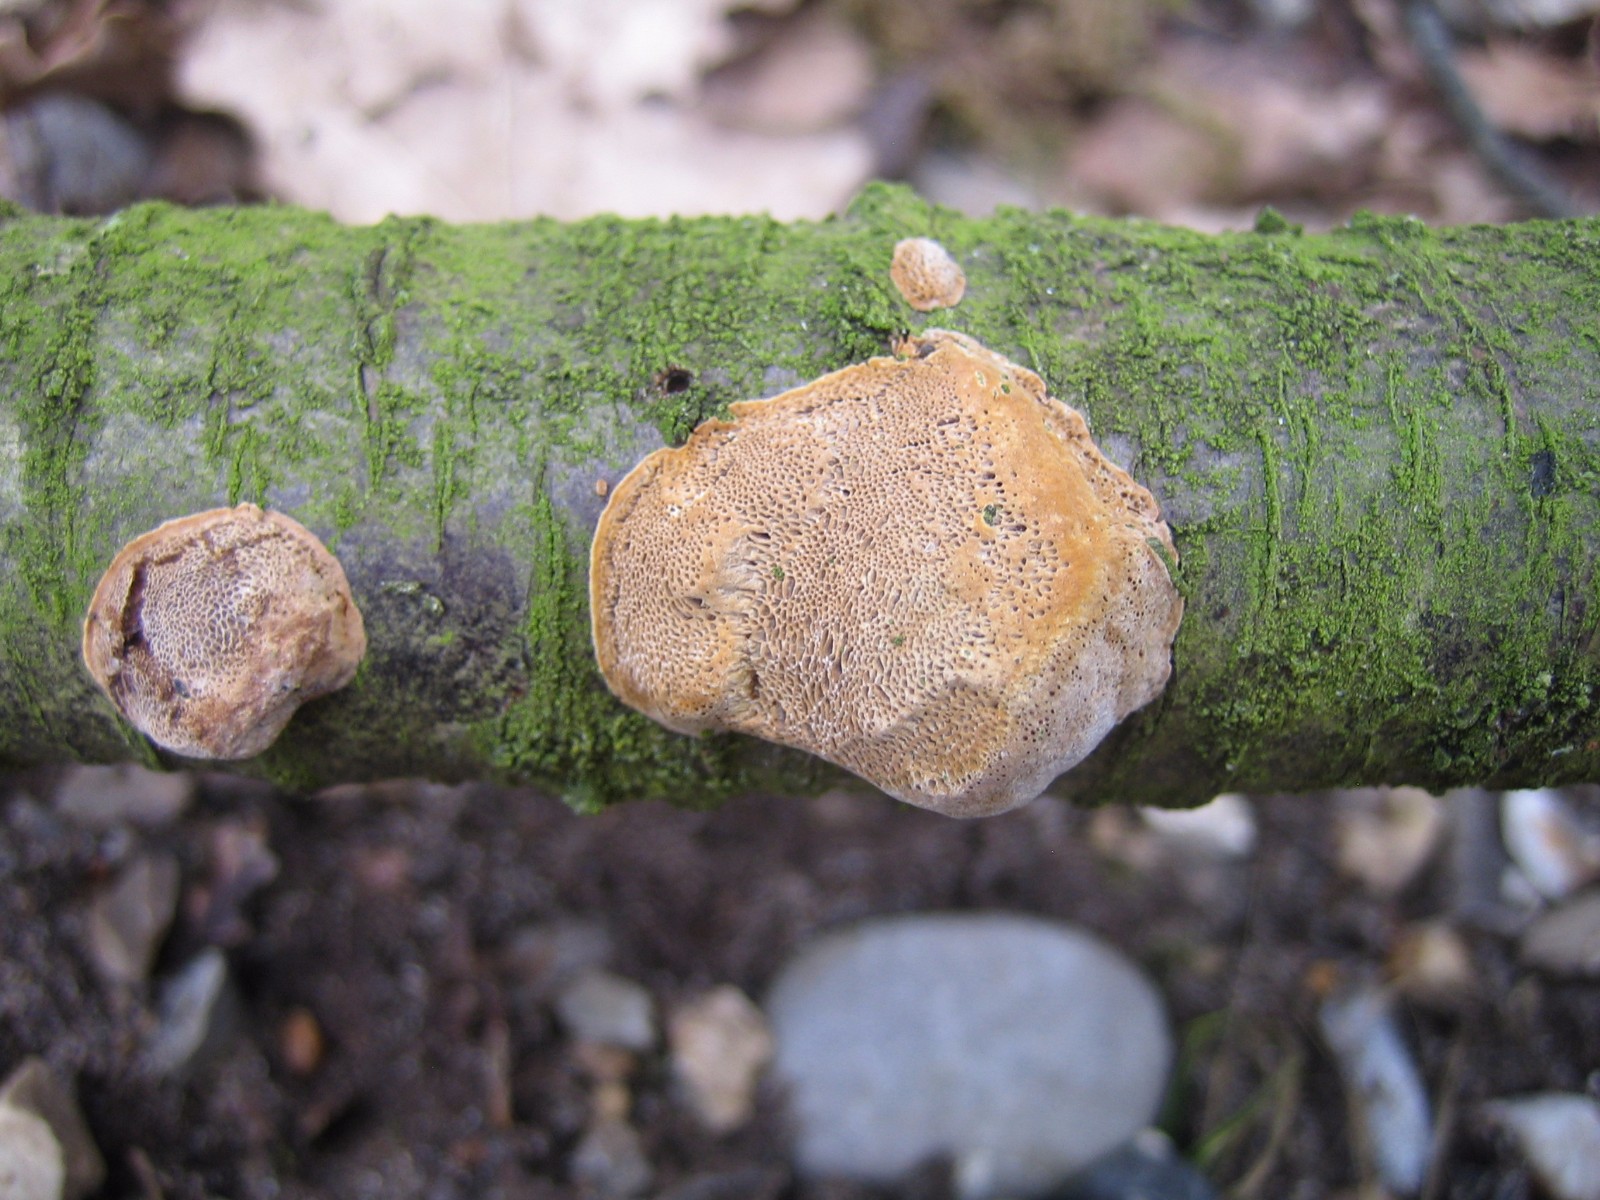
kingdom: Fungi
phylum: Basidiomycota
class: Agaricomycetes
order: Hymenochaetales
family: Hymenochaetaceae
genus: Phellinus
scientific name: Phellinus pomaceus
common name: blomme-ildporesvamp
